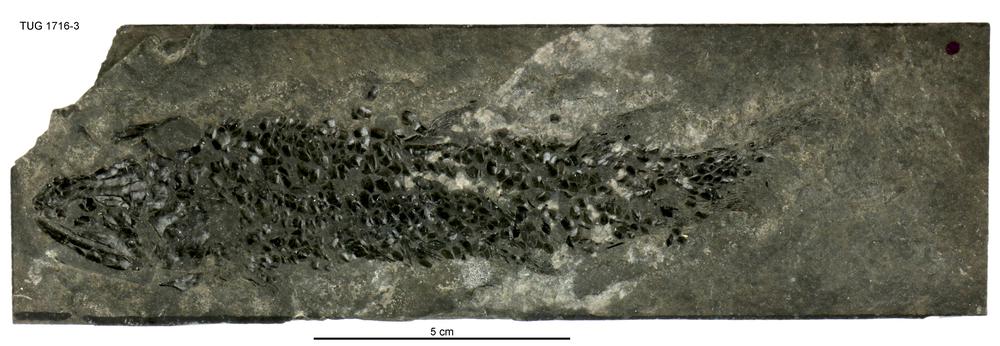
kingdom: Animalia
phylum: Chordata
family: Osteolepididae
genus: Osteolepis
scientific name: Osteolepis macrolepidotus
